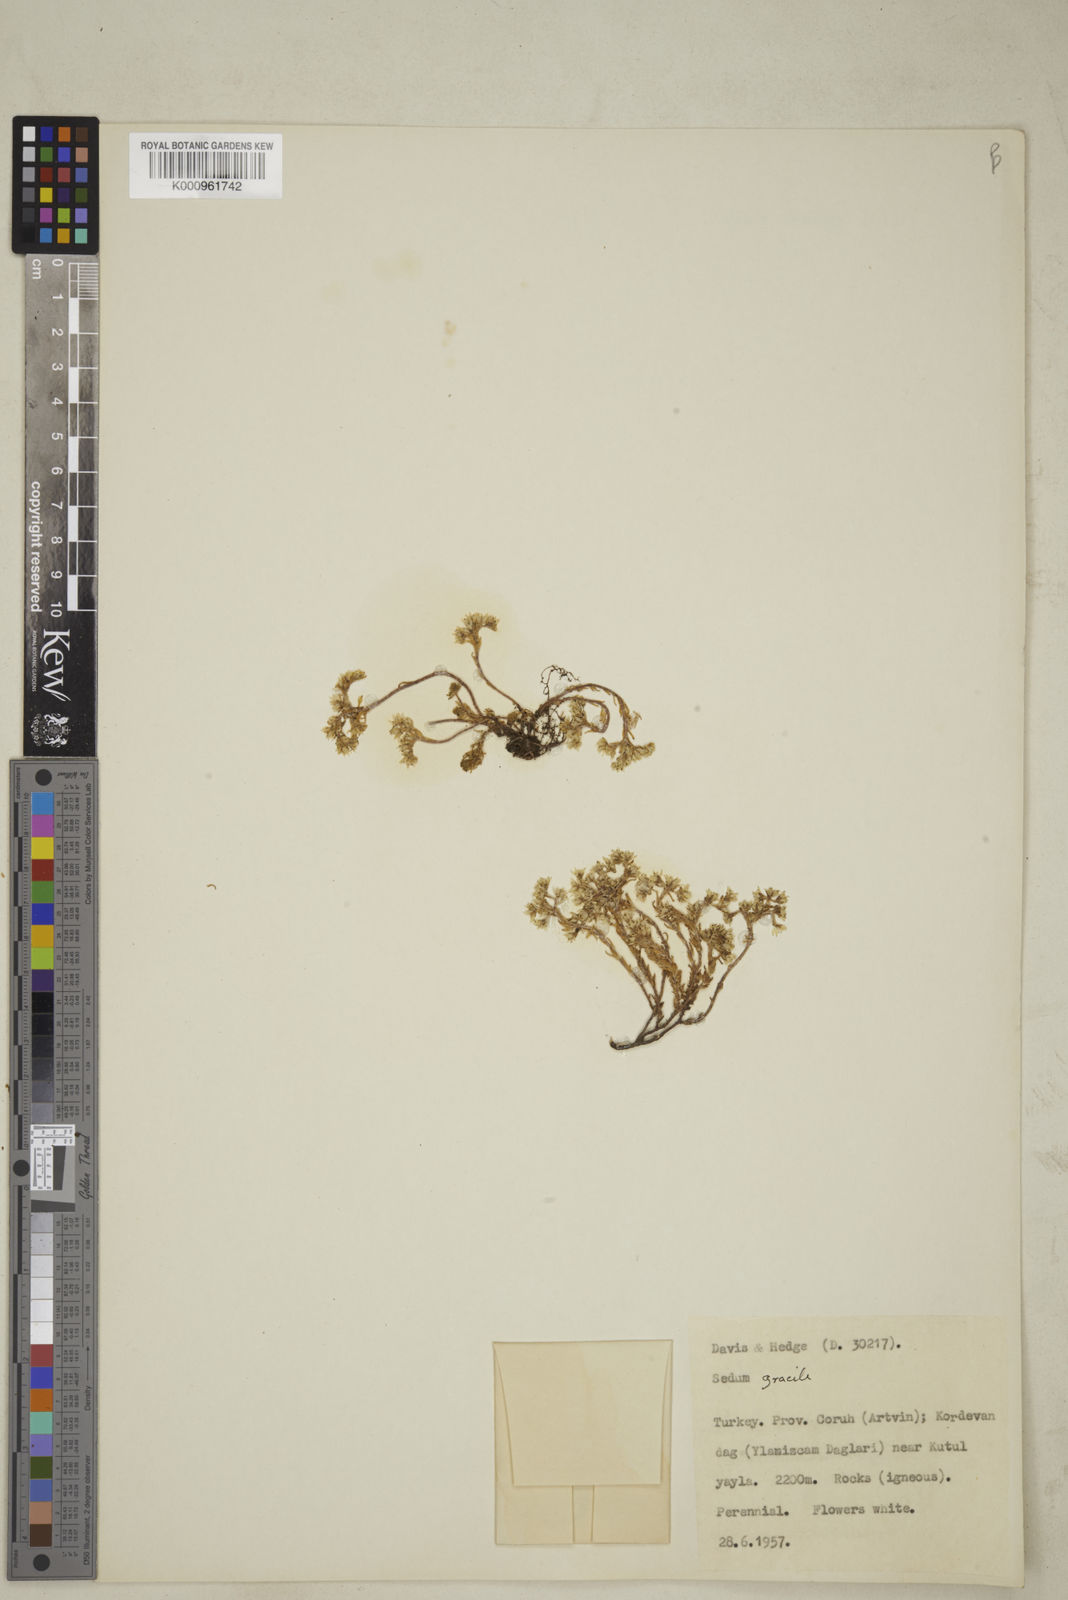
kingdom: Plantae
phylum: Tracheophyta
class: Magnoliopsida
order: Saxifragales
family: Crassulaceae
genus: Sedum
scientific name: Sedum gracile
